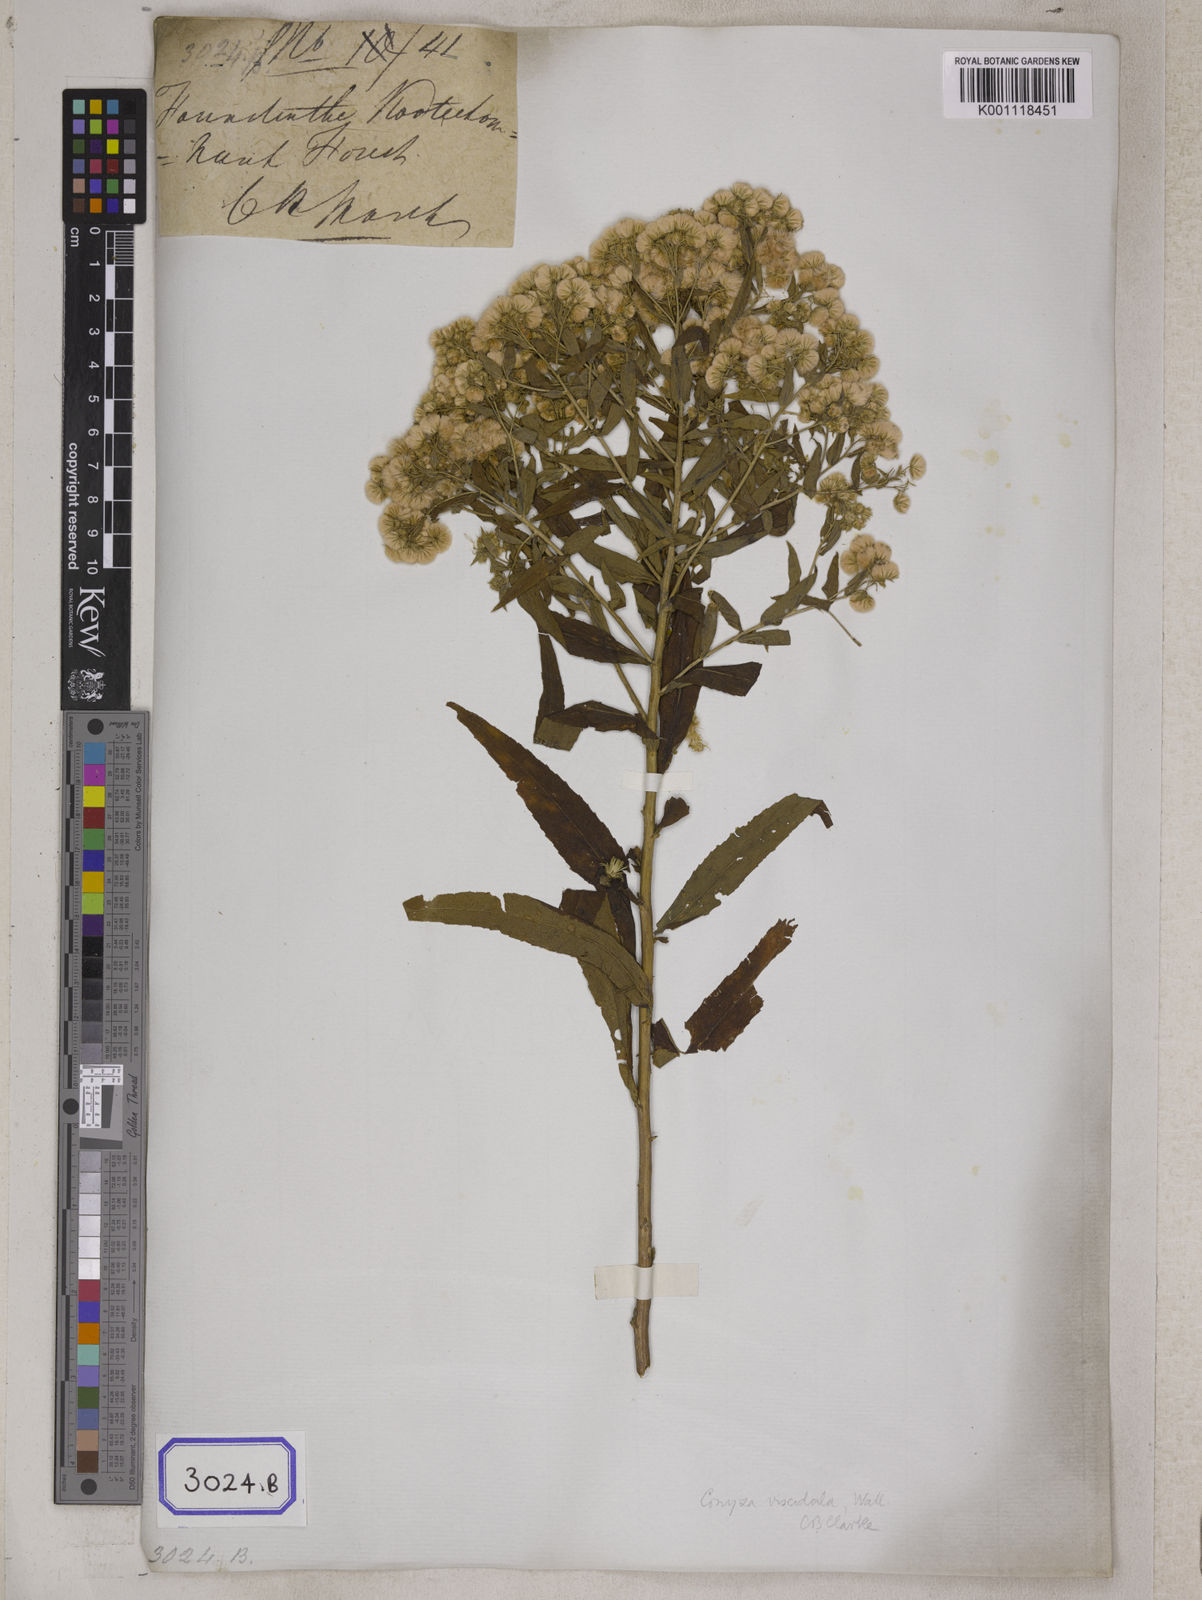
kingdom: Plantae
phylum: Tracheophyta
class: Magnoliopsida
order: Asterales
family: Asteraceae
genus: Eschenbachia
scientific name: Eschenbachia leucantha
